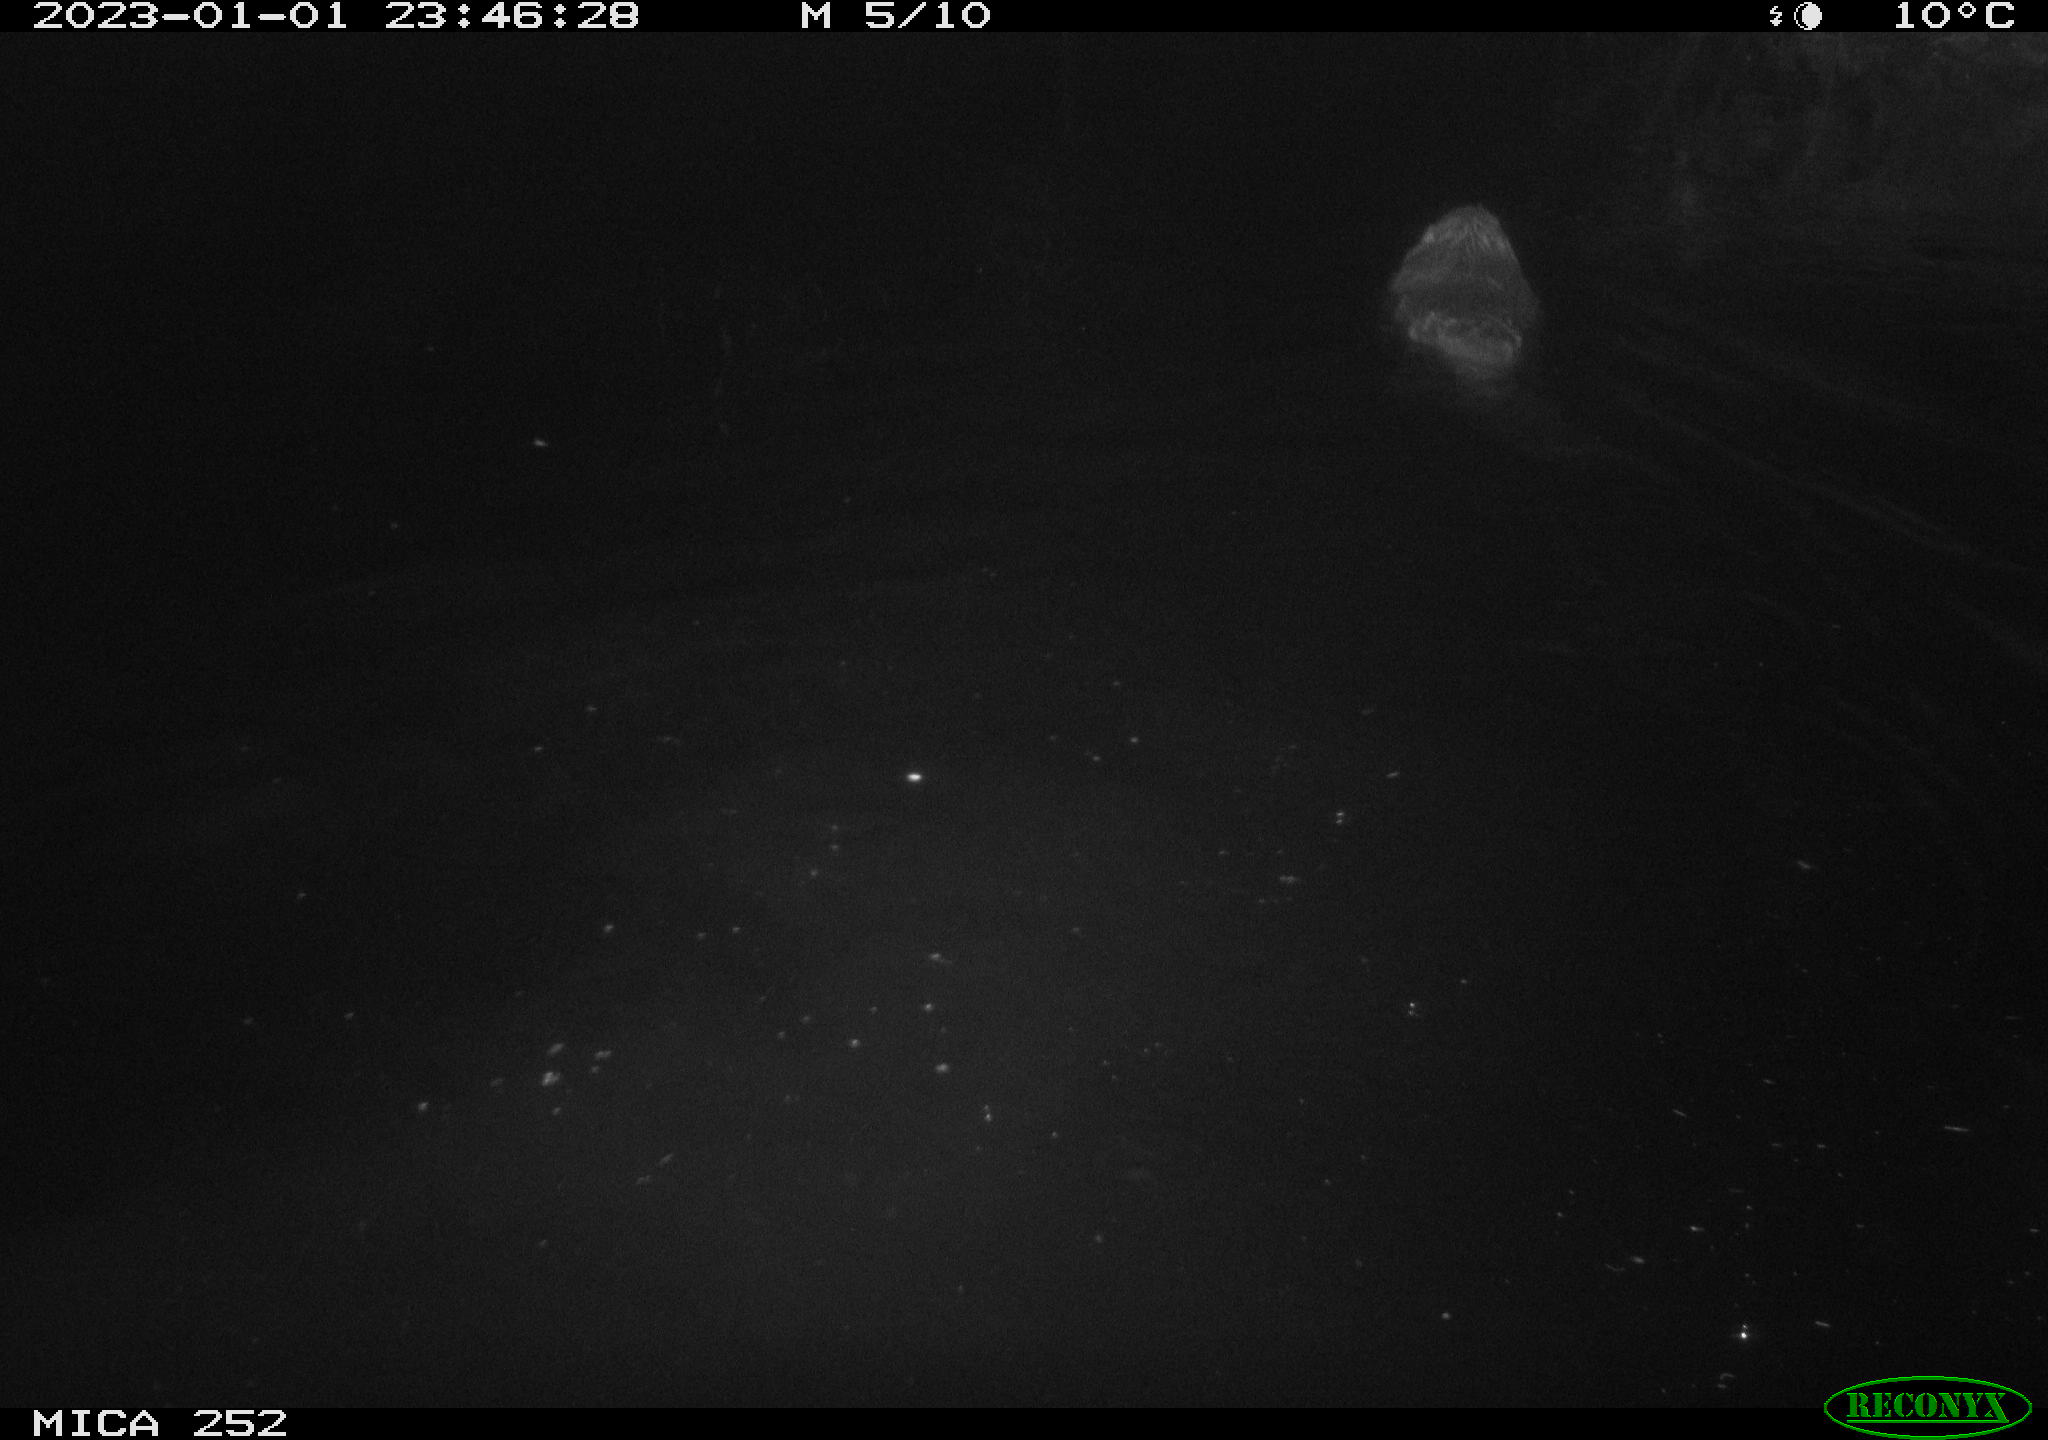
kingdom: Animalia
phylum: Chordata
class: Mammalia
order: Rodentia
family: Castoridae
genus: Castor
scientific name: Castor fiber
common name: Eurasian beaver
